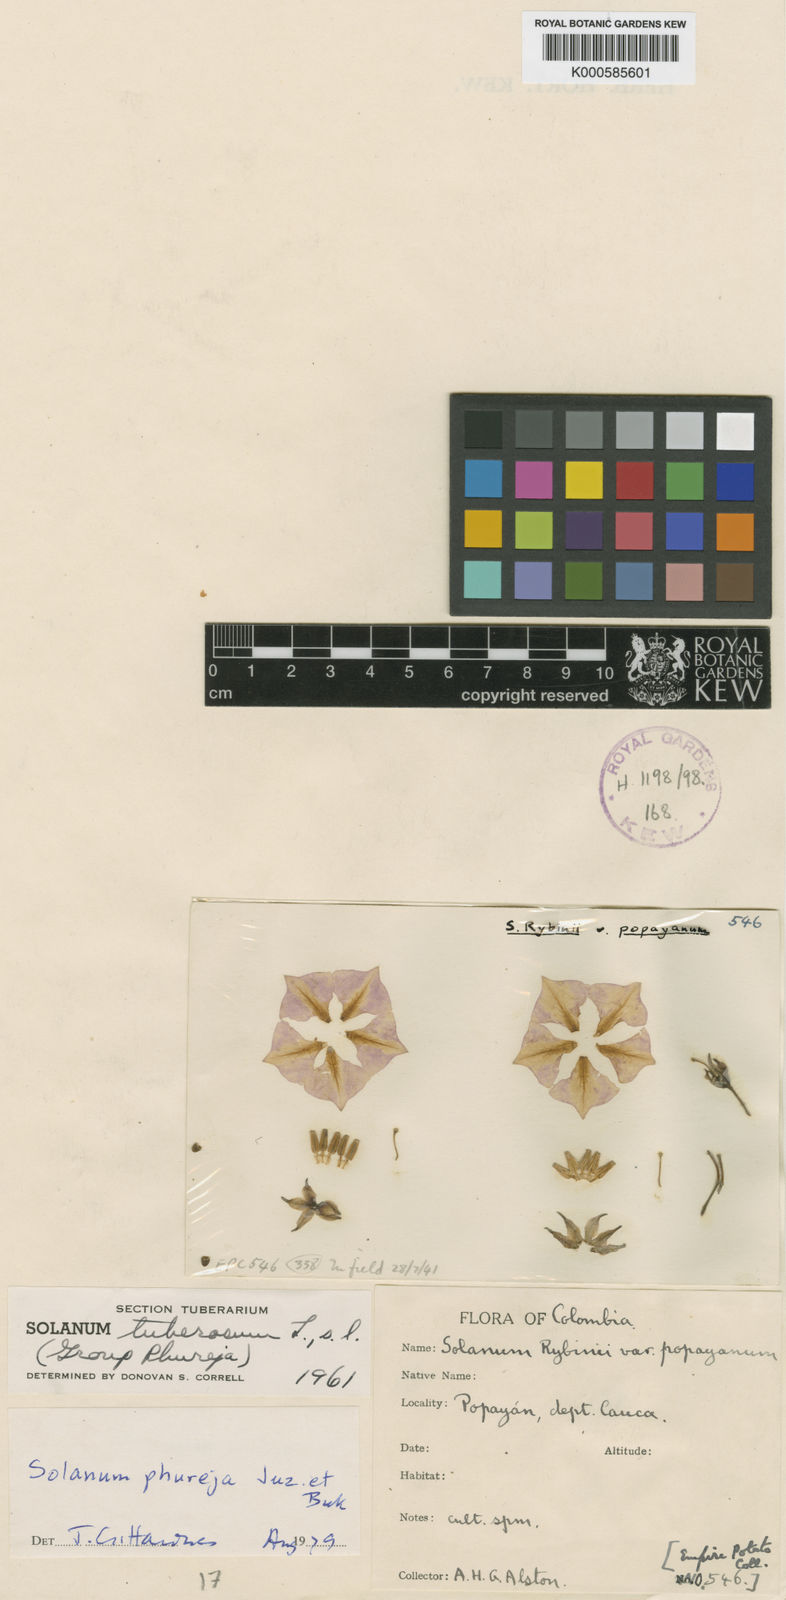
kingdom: Plantae
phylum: Tracheophyta
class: Magnoliopsida
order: Solanales
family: Solanaceae
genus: Solanum
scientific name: Solanum tuberosum
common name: Potato
